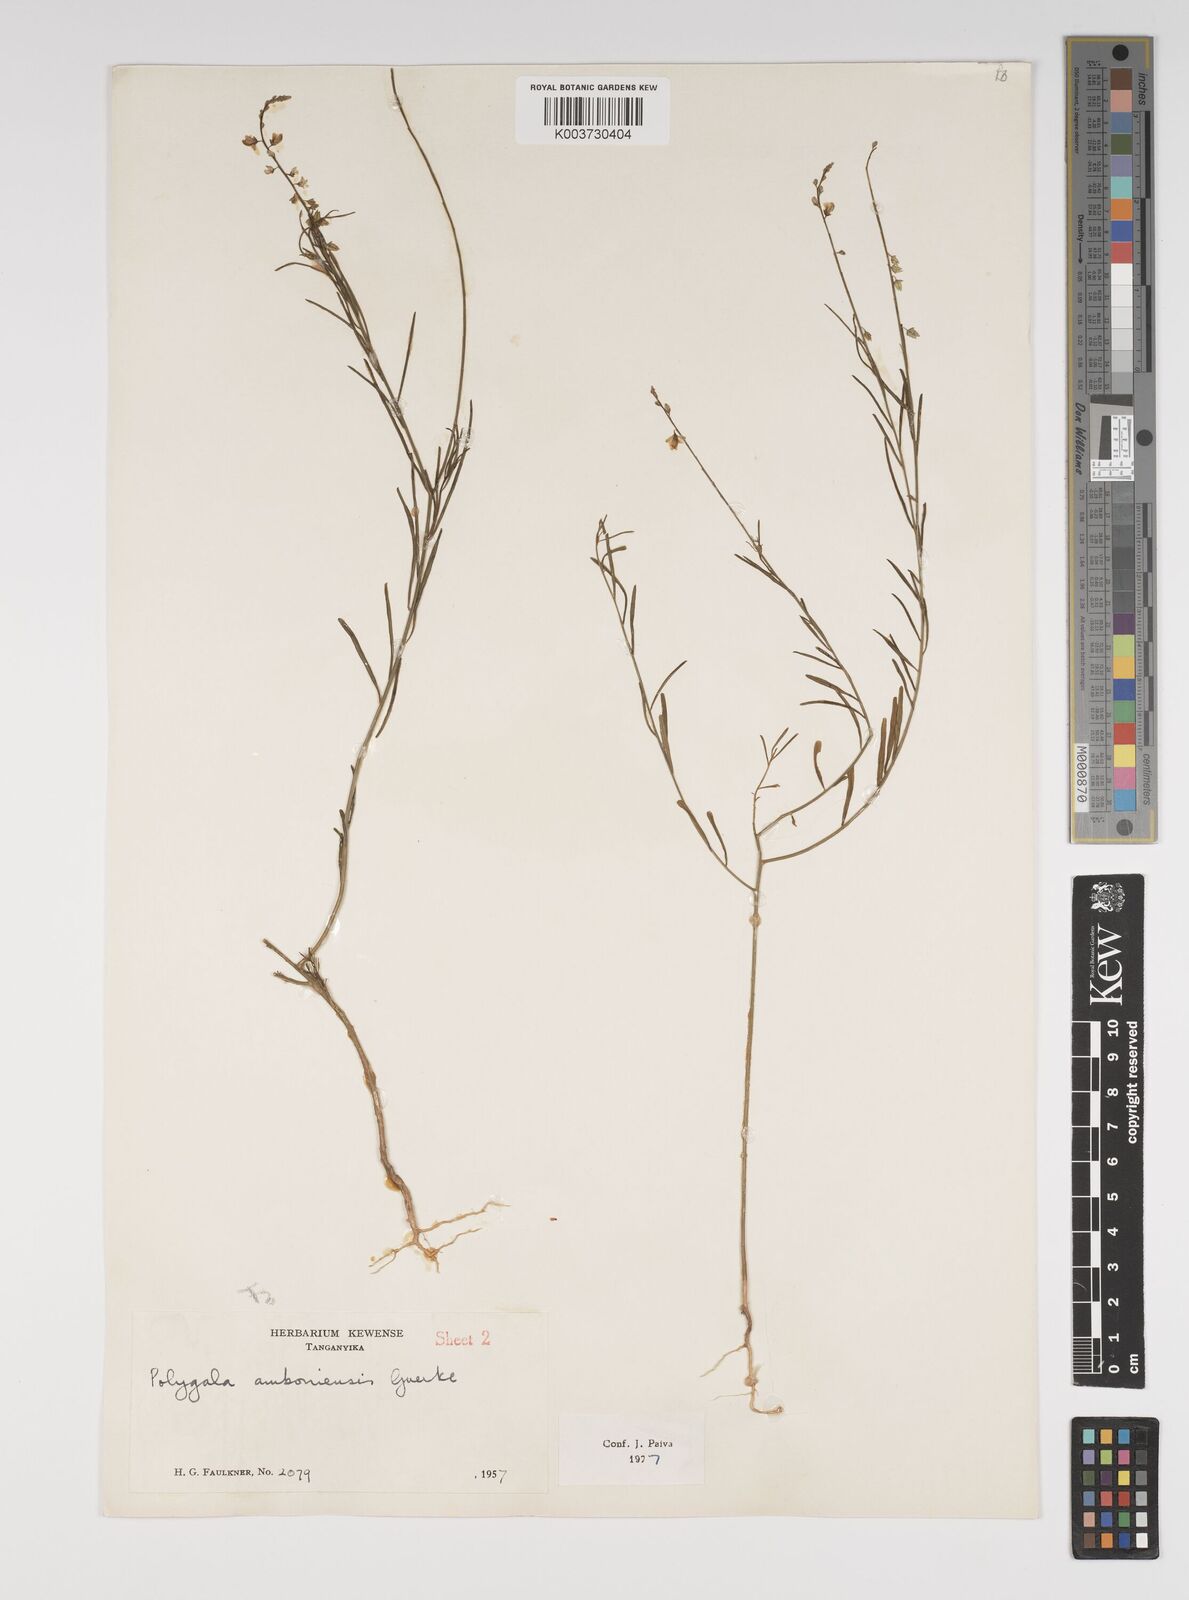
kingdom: Plantae
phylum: Tracheophyta
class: Magnoliopsida
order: Fabales
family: Polygalaceae
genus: Polygala
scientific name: Polygala amboniensis
